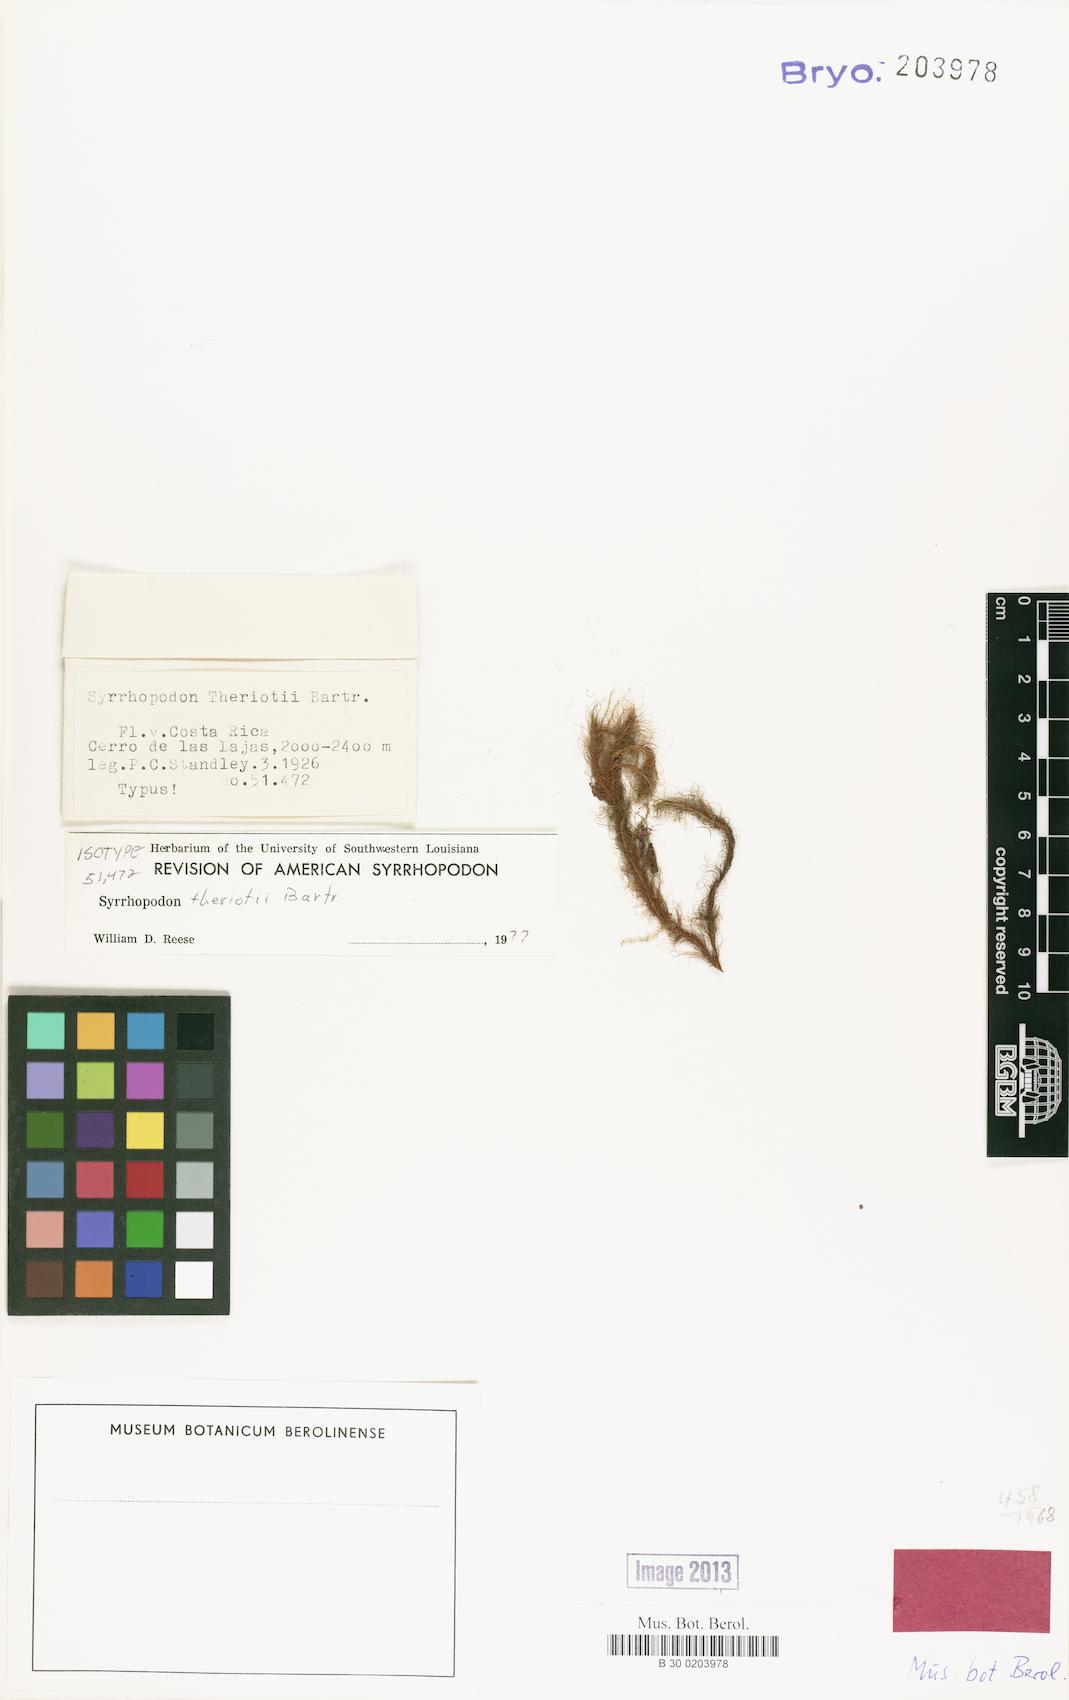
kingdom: Plantae
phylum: Bryophyta
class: Bryopsida
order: Dicranales
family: Calymperaceae
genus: Syrrhopodon
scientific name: Syrrhopodon theriotii
